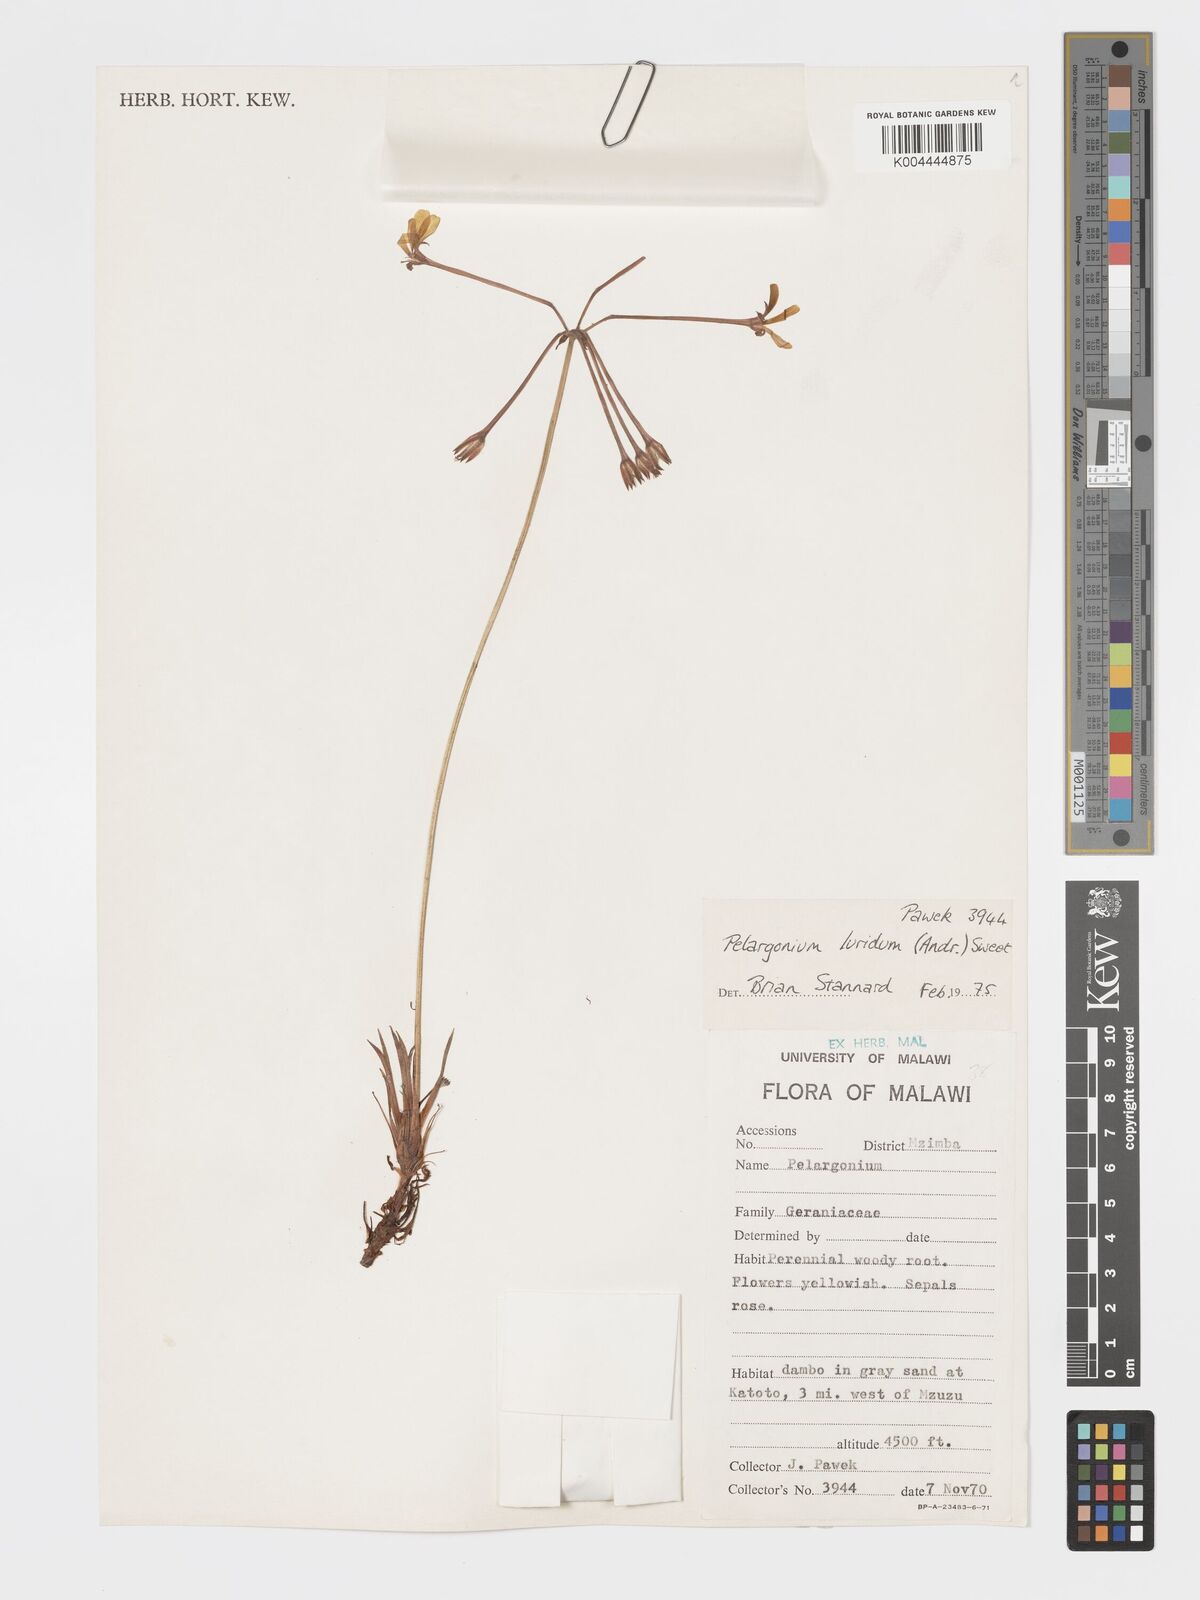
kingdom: Plantae
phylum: Tracheophyta
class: Magnoliopsida
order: Geraniales
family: Geraniaceae
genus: Pelargonium
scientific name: Pelargonium luridum
